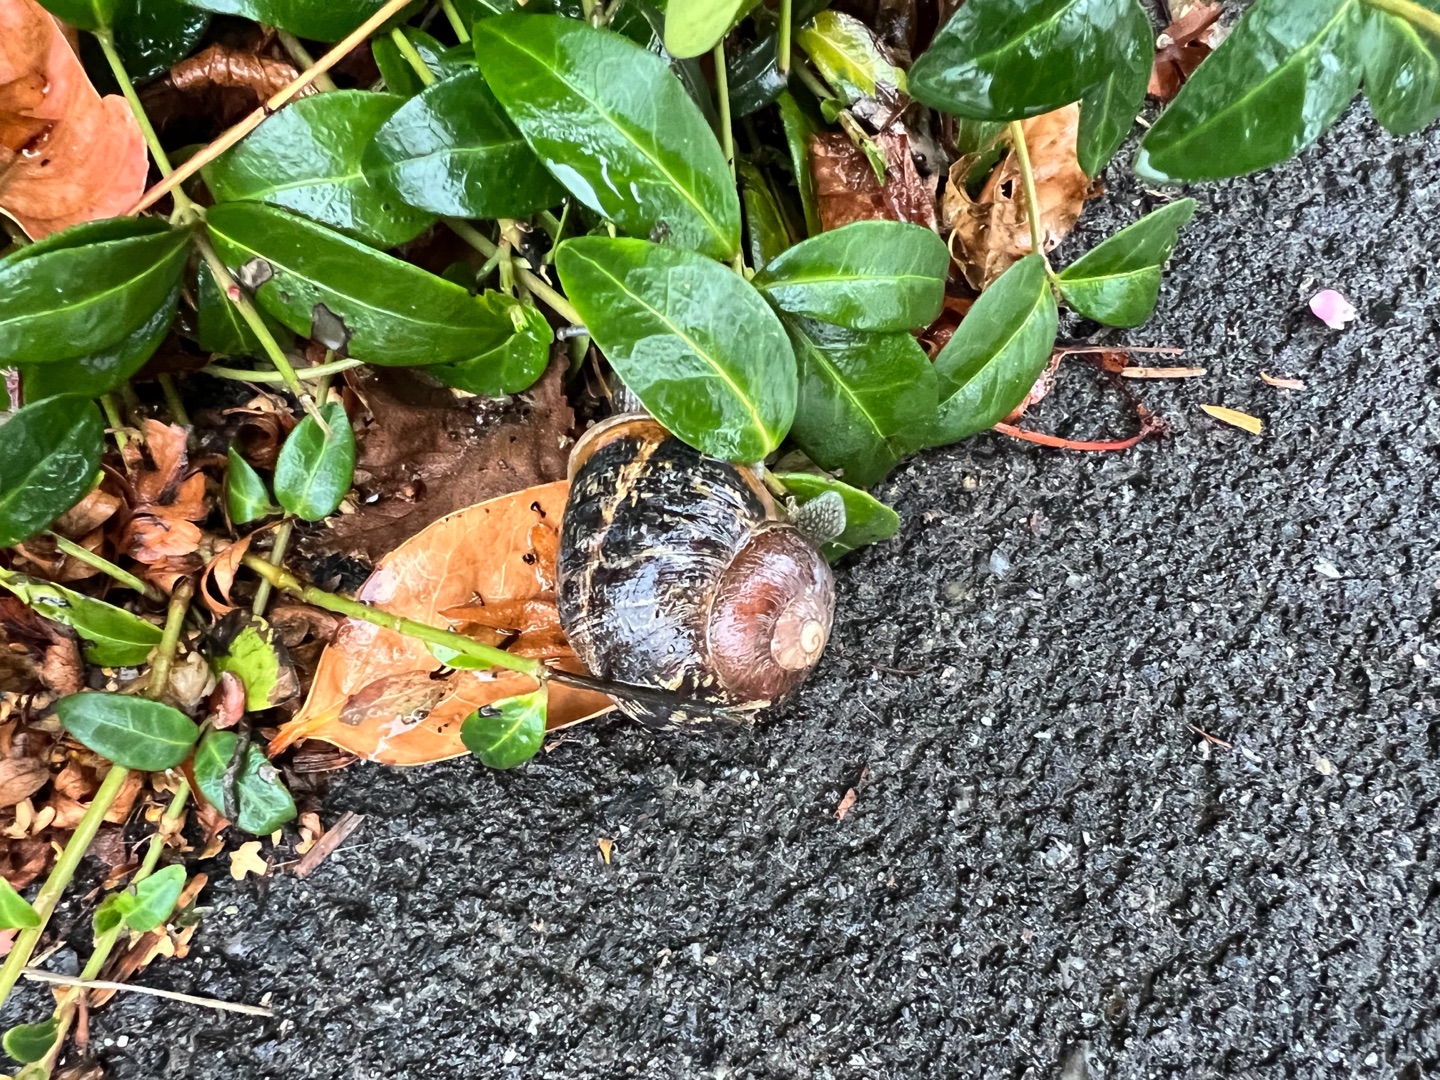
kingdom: Animalia
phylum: Mollusca
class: Gastropoda
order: Stylommatophora
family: Helicidae
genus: Cornu
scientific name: Cornu aspersum
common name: Plettet voldsnegl
